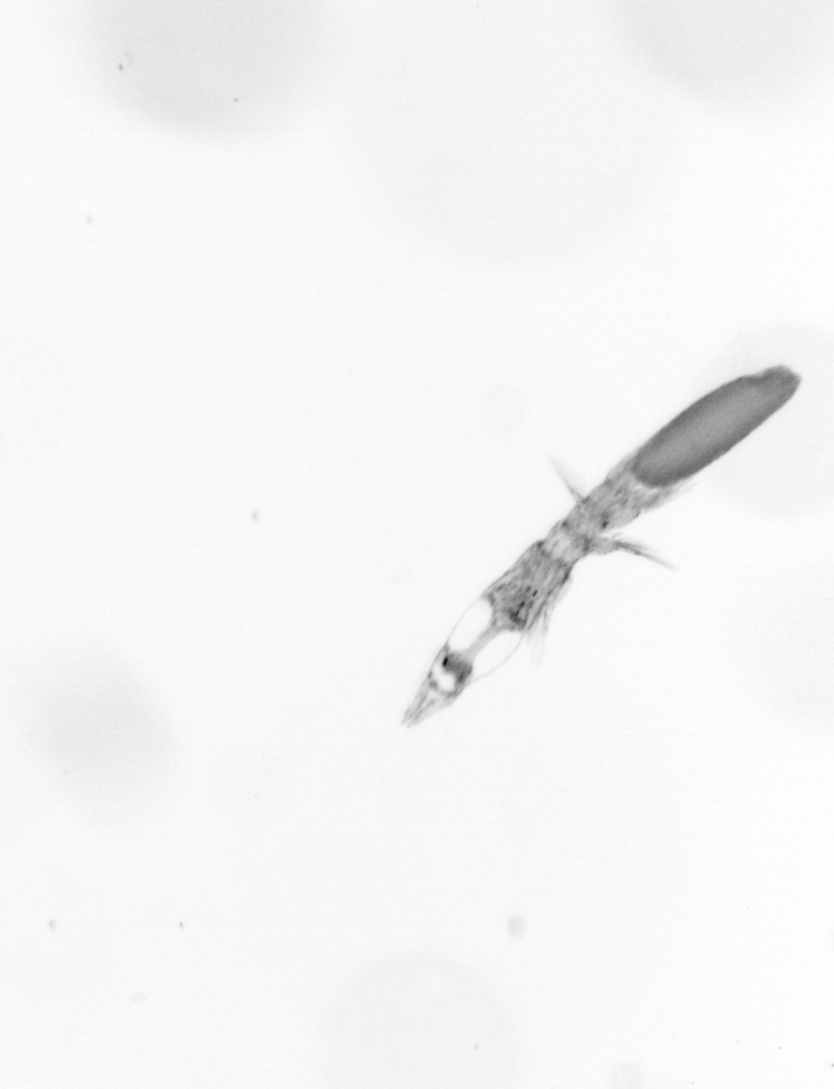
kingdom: Animalia
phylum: Arthropoda
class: Copepoda
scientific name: Copepoda
